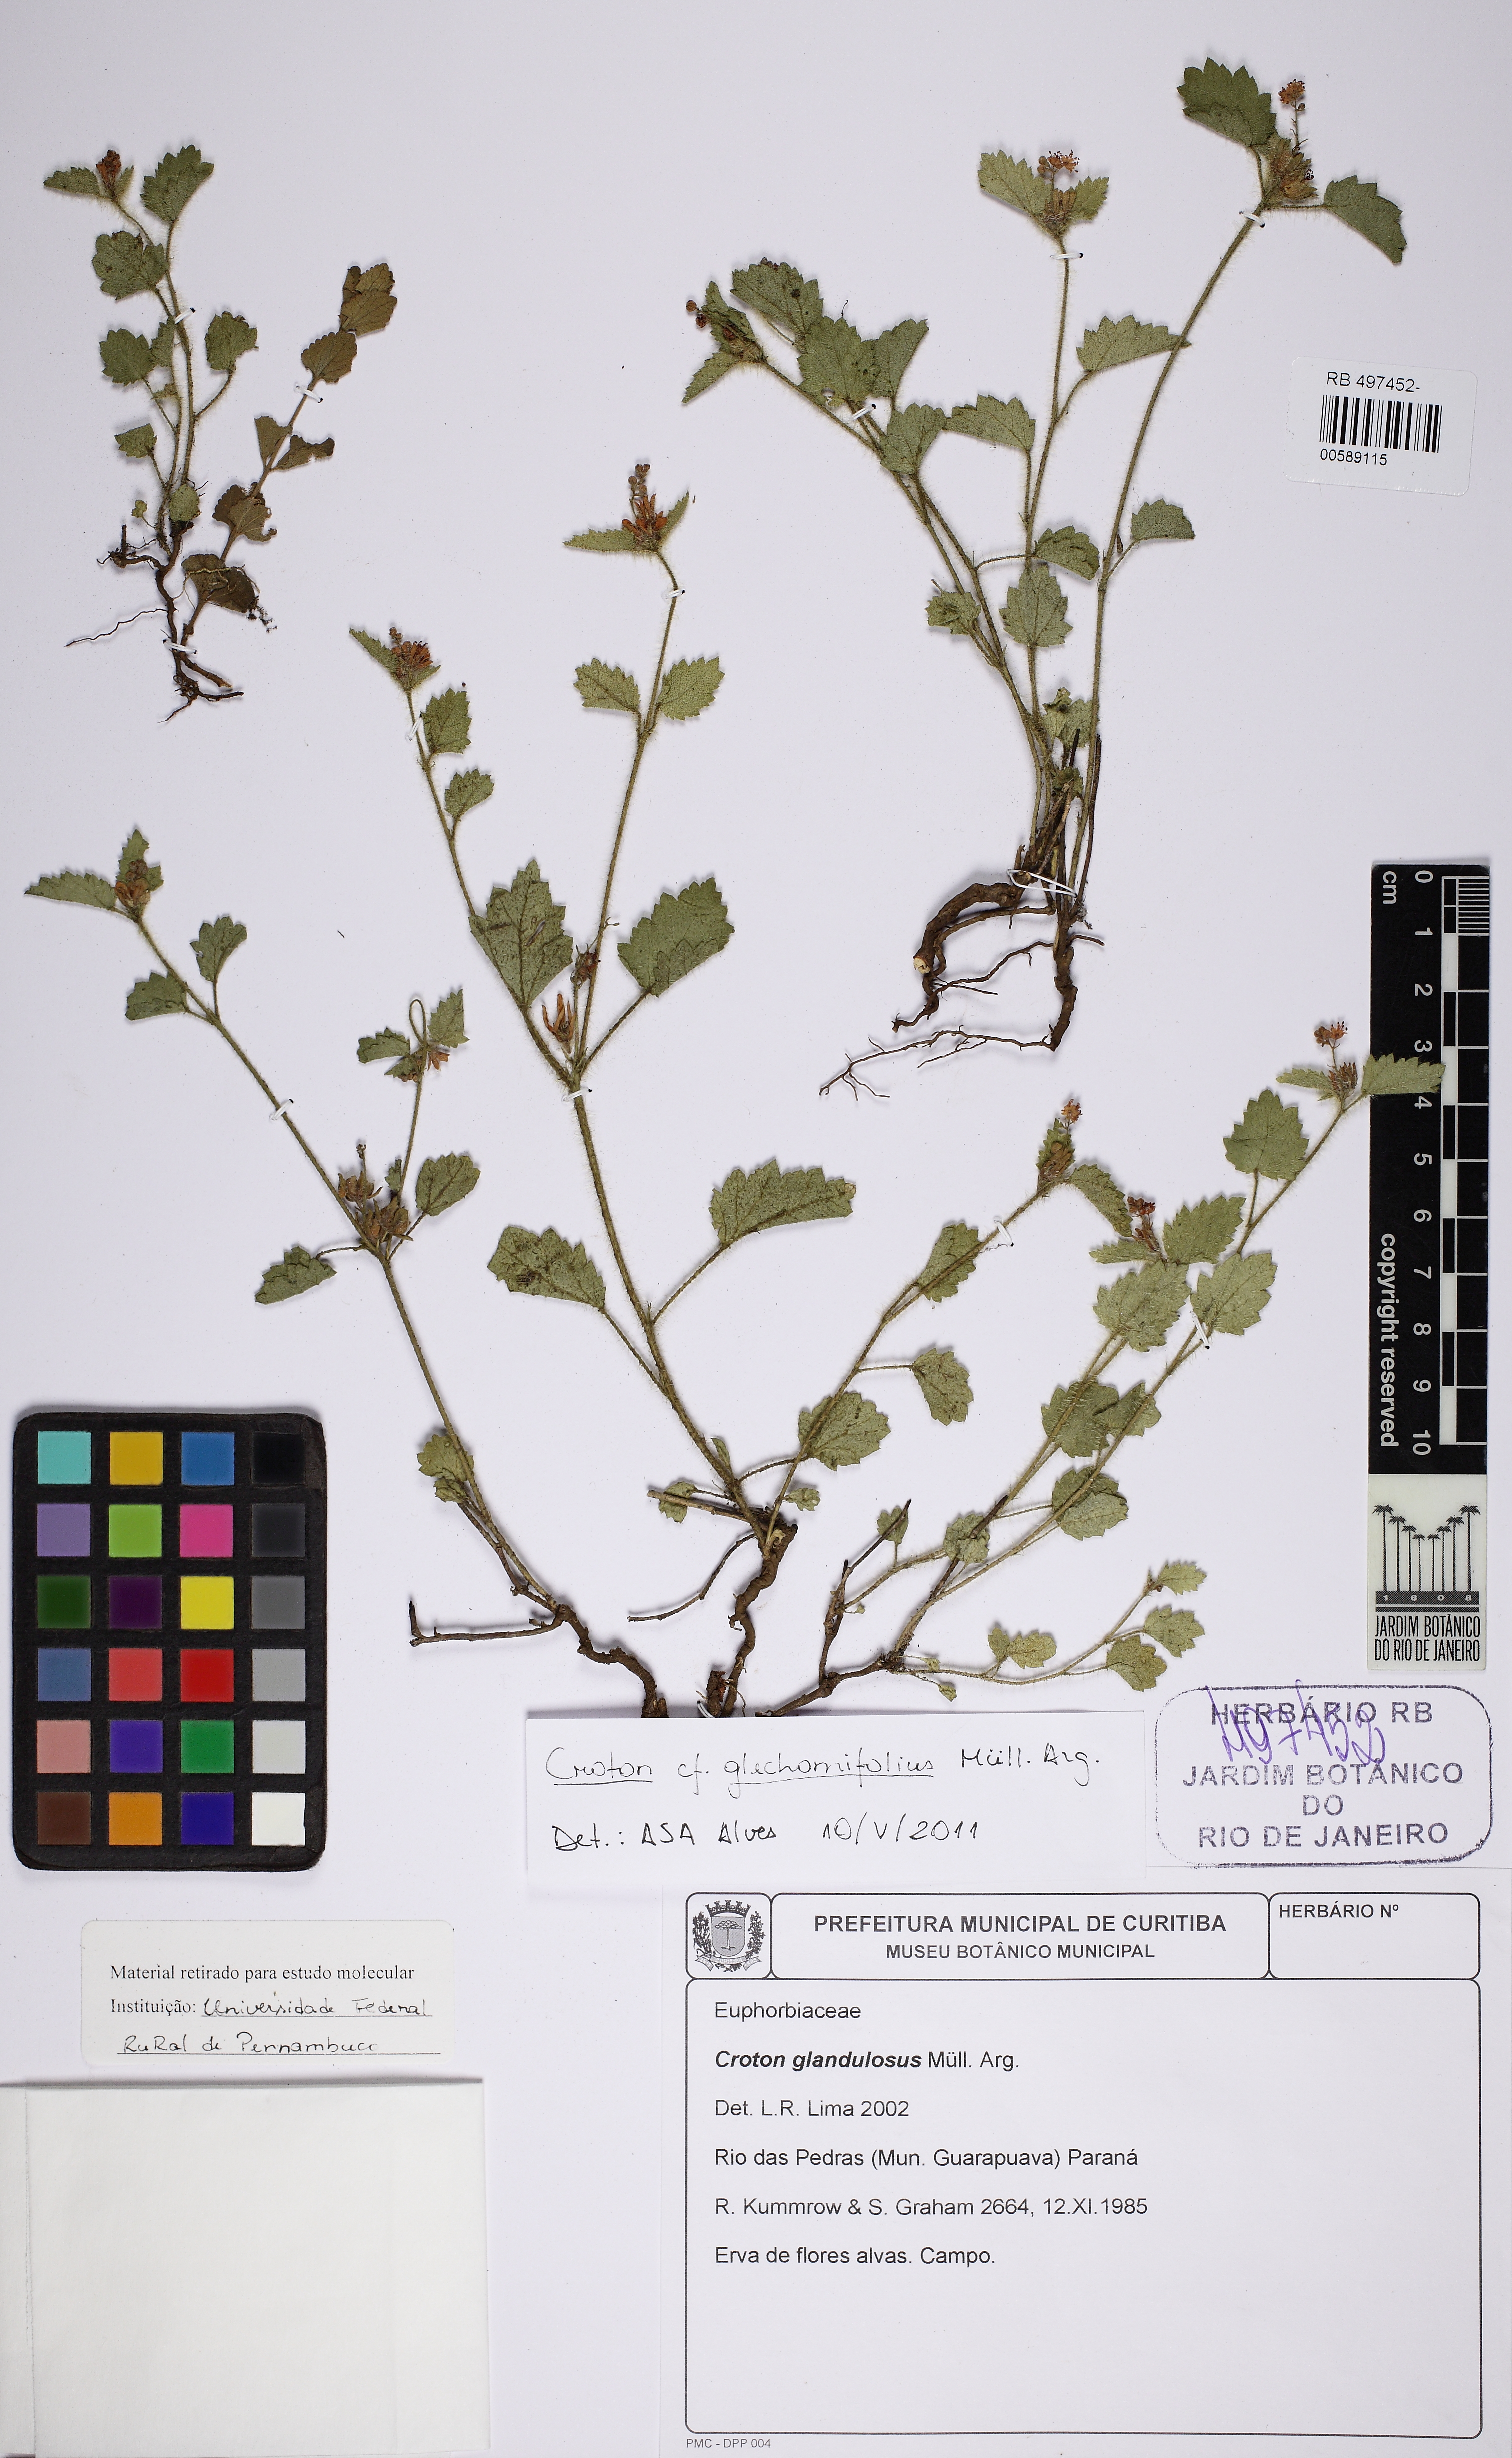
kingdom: Plantae
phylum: Tracheophyta
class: Magnoliopsida
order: Malpighiales
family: Euphorbiaceae
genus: Croton
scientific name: Croton glechomifolius
